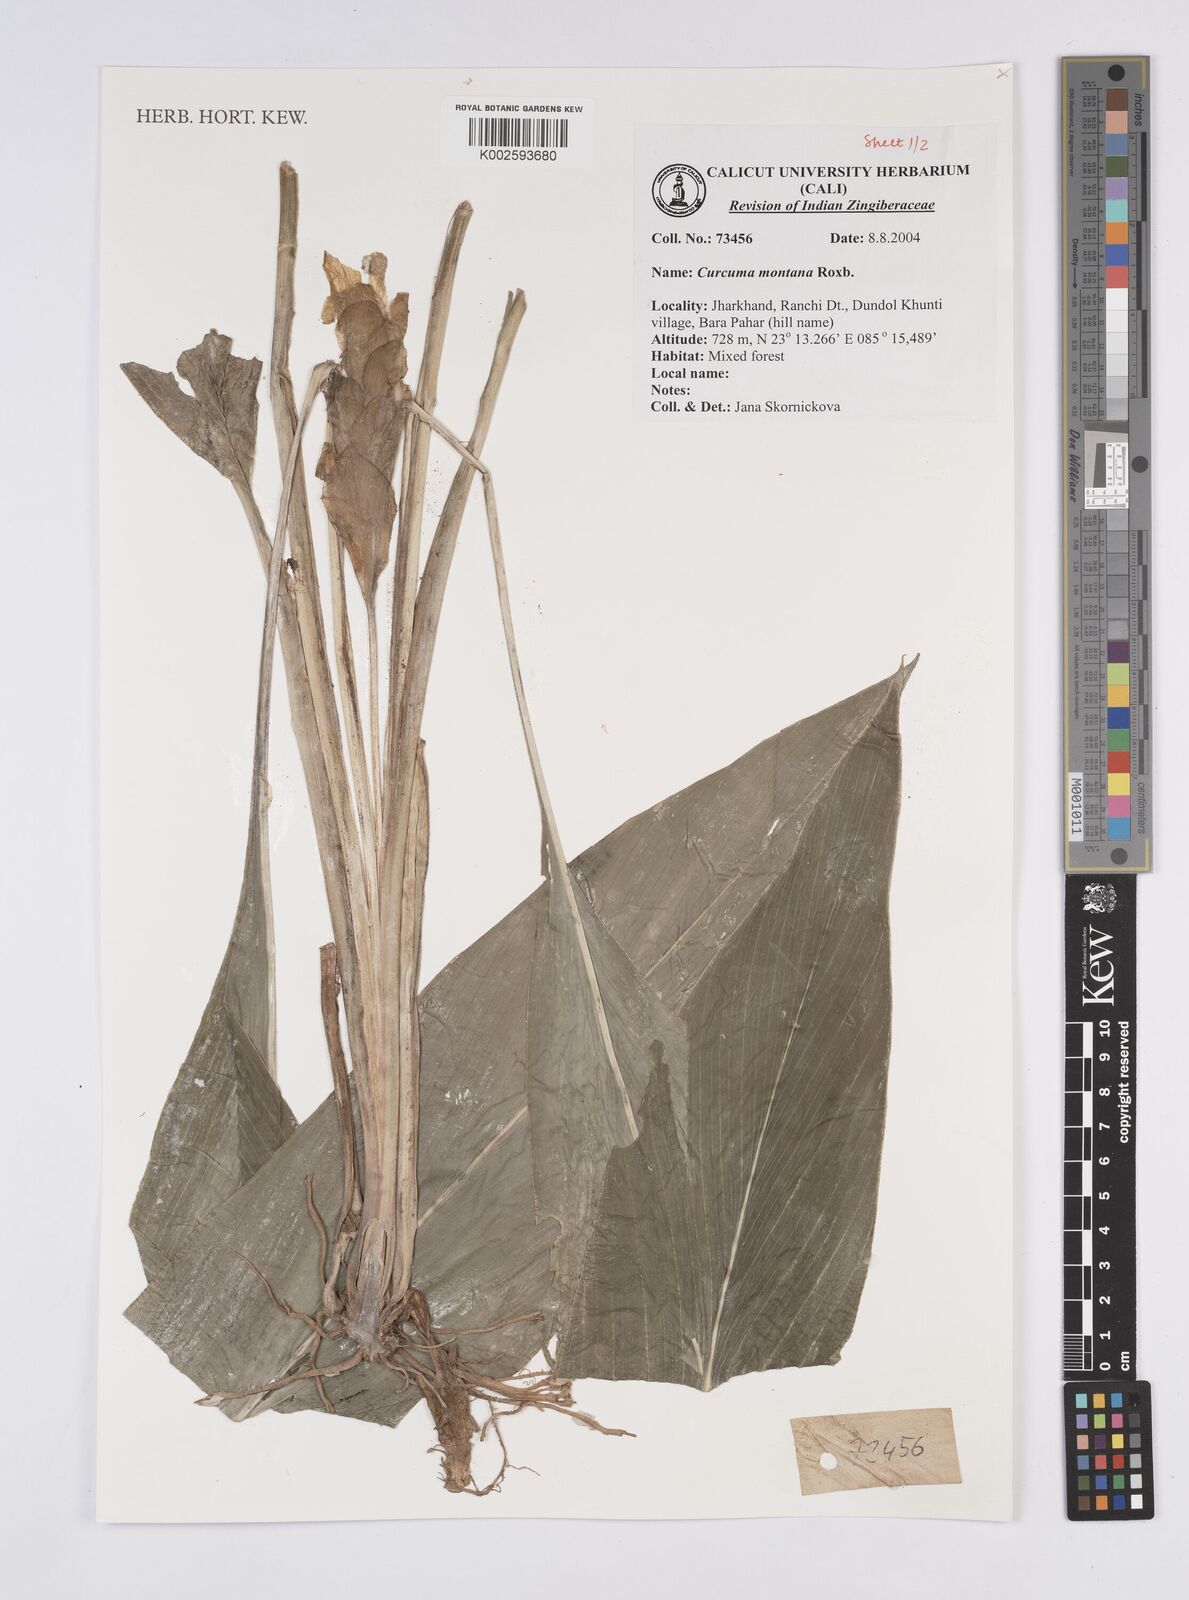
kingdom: Plantae
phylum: Tracheophyta
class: Liliopsida
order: Zingiberales
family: Zingiberaceae
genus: Curcuma
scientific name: Curcuma montana
